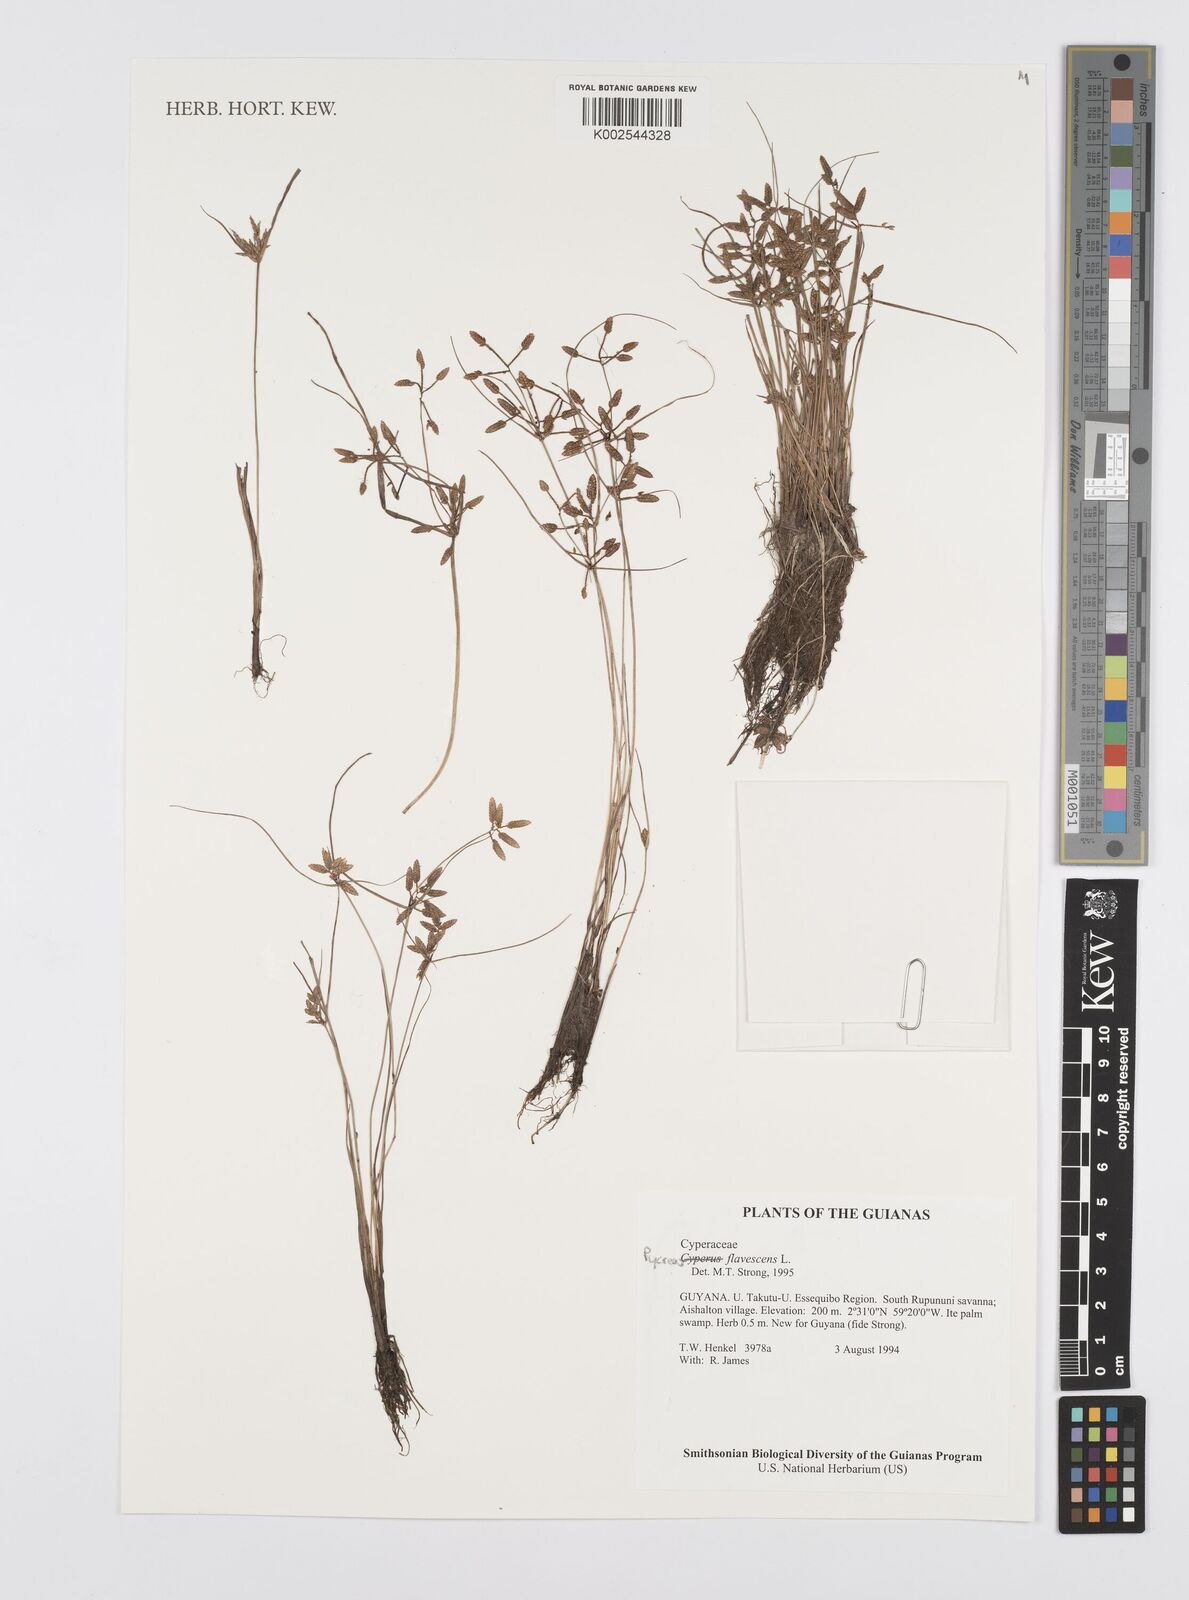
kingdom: Plantae
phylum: Tracheophyta
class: Liliopsida
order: Poales
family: Cyperaceae
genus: Cyperus
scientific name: Cyperus flavescens
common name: Yellow galingale
